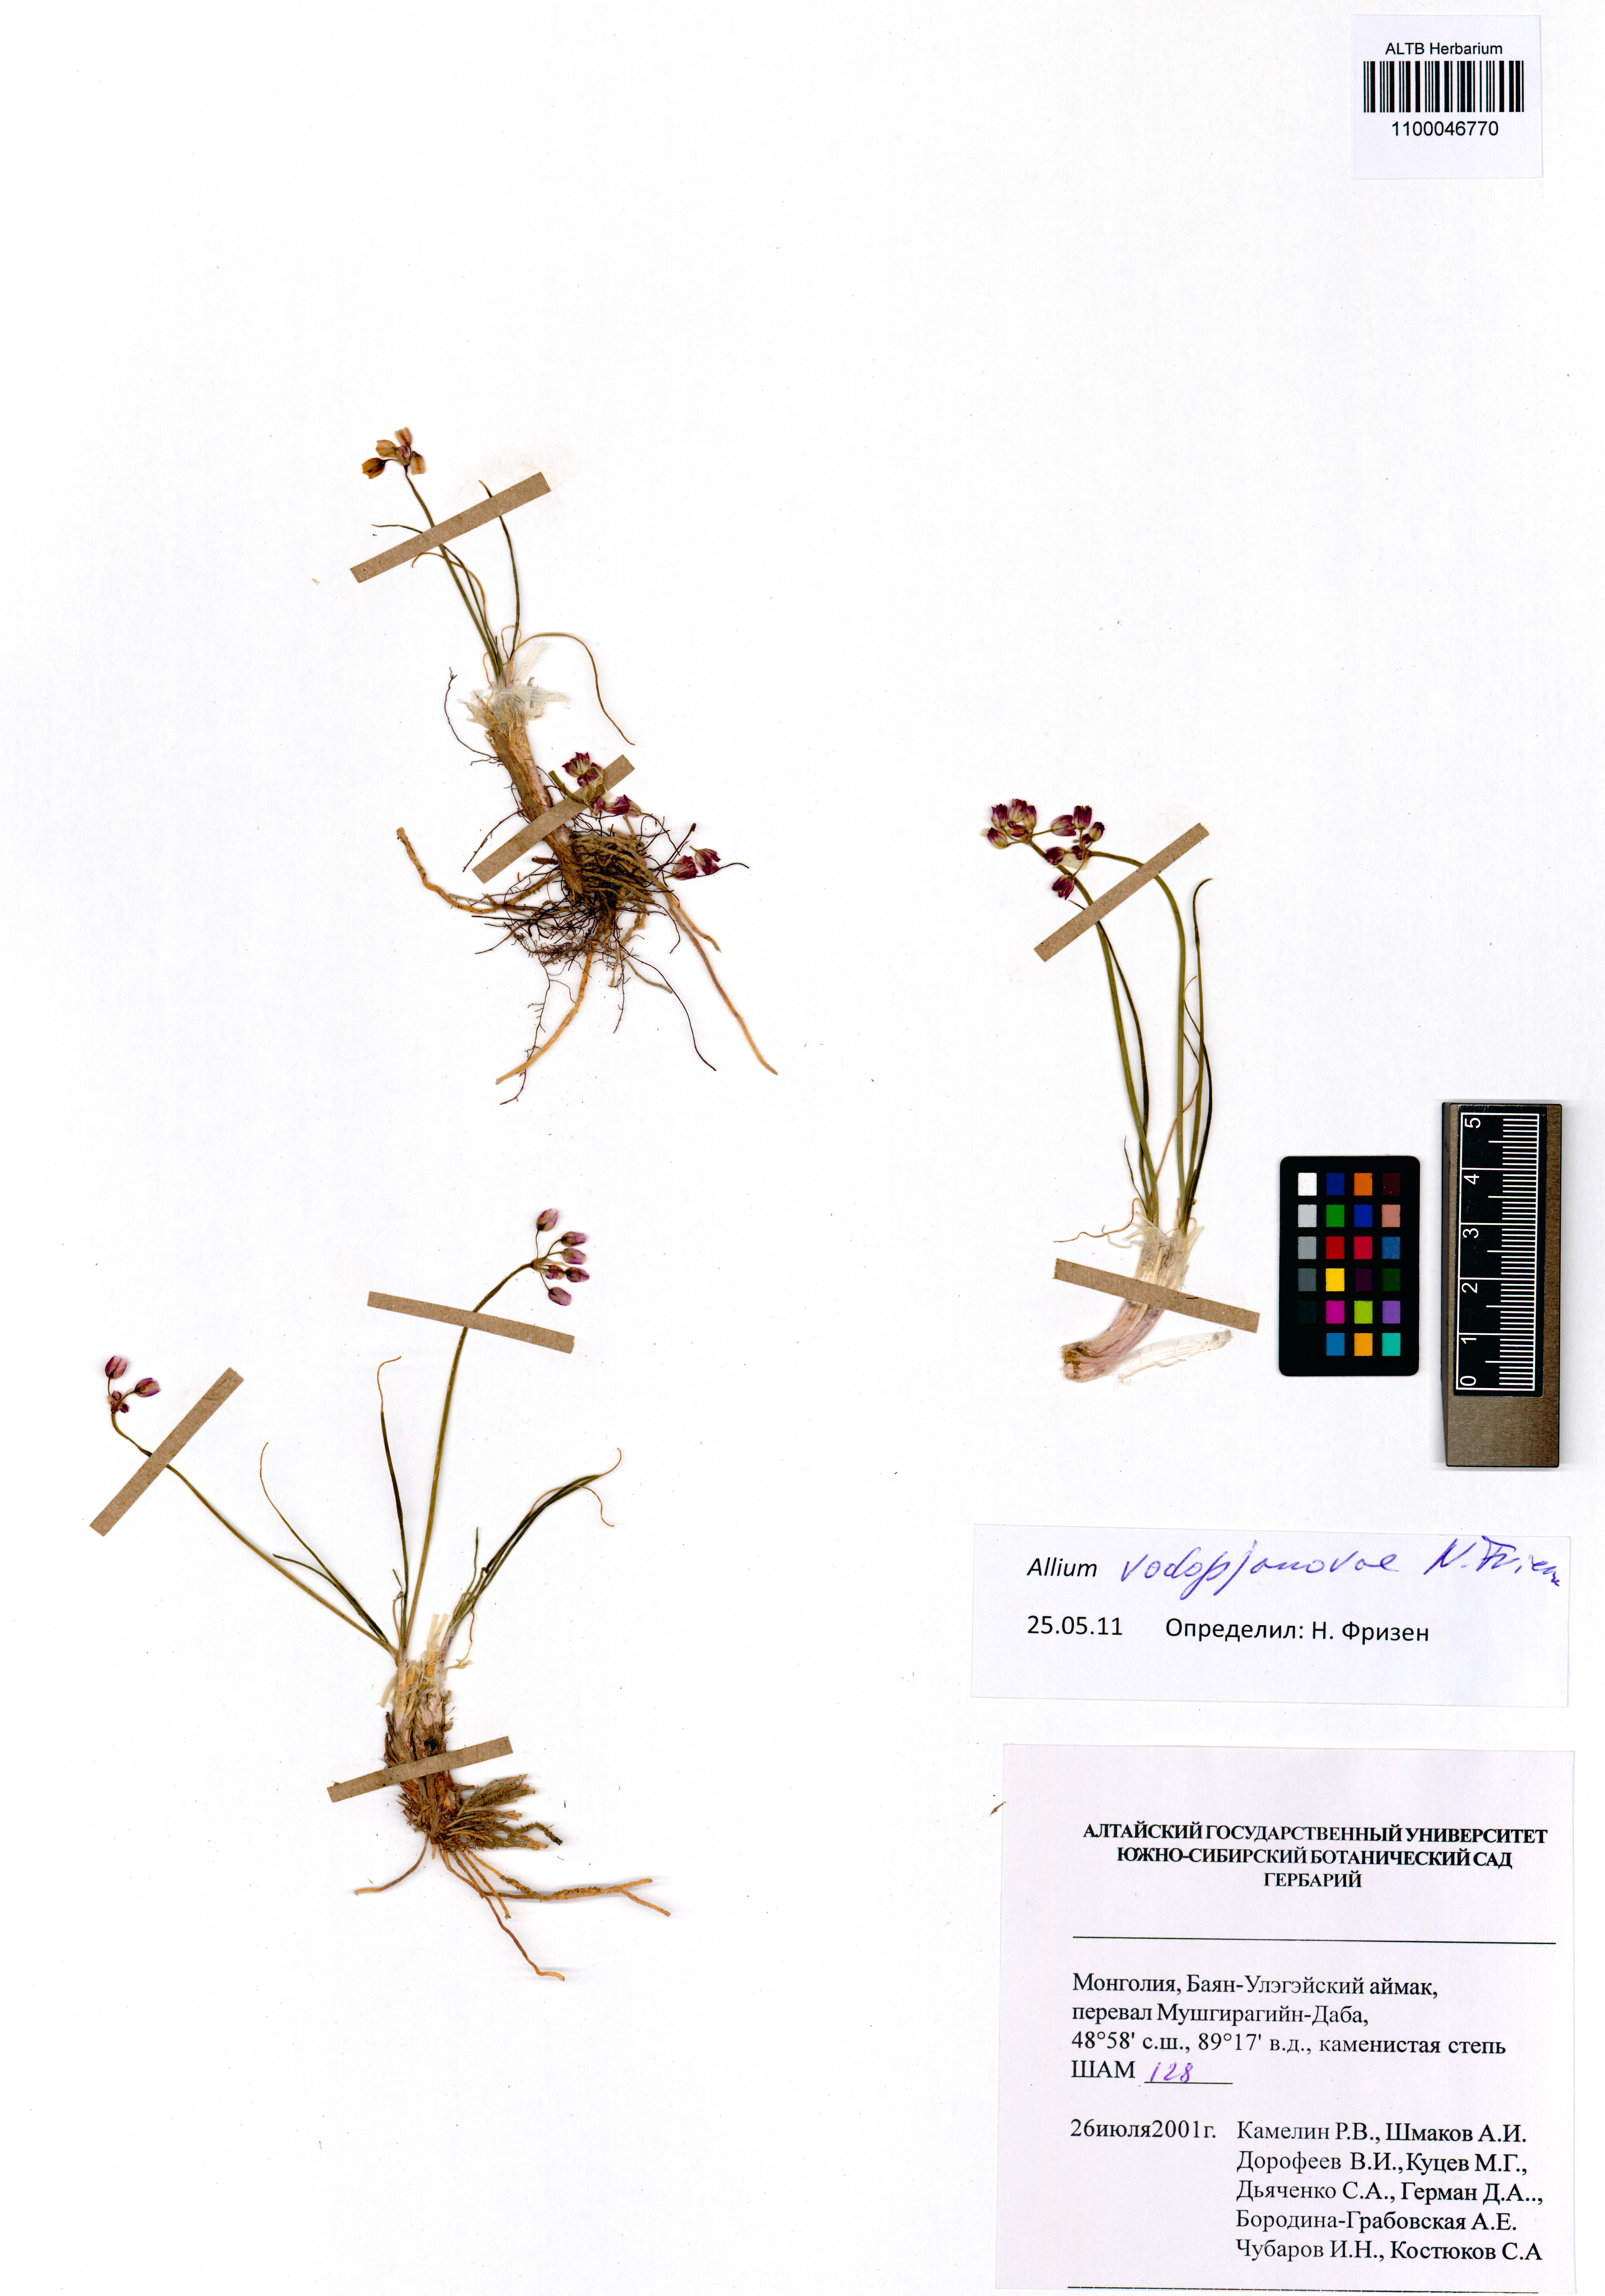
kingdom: Plantae
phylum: Tracheophyta
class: Liliopsida
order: Asparagales
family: Amaryllidaceae
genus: Allium
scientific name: Allium vodopjanovae
